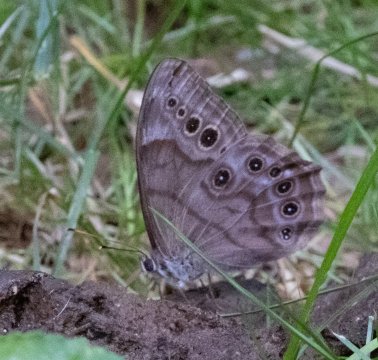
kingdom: Animalia
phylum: Arthropoda
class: Insecta
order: Lepidoptera
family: Nymphalidae
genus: Lethe
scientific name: Lethe anthedon
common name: Northern Pearly-Eye
